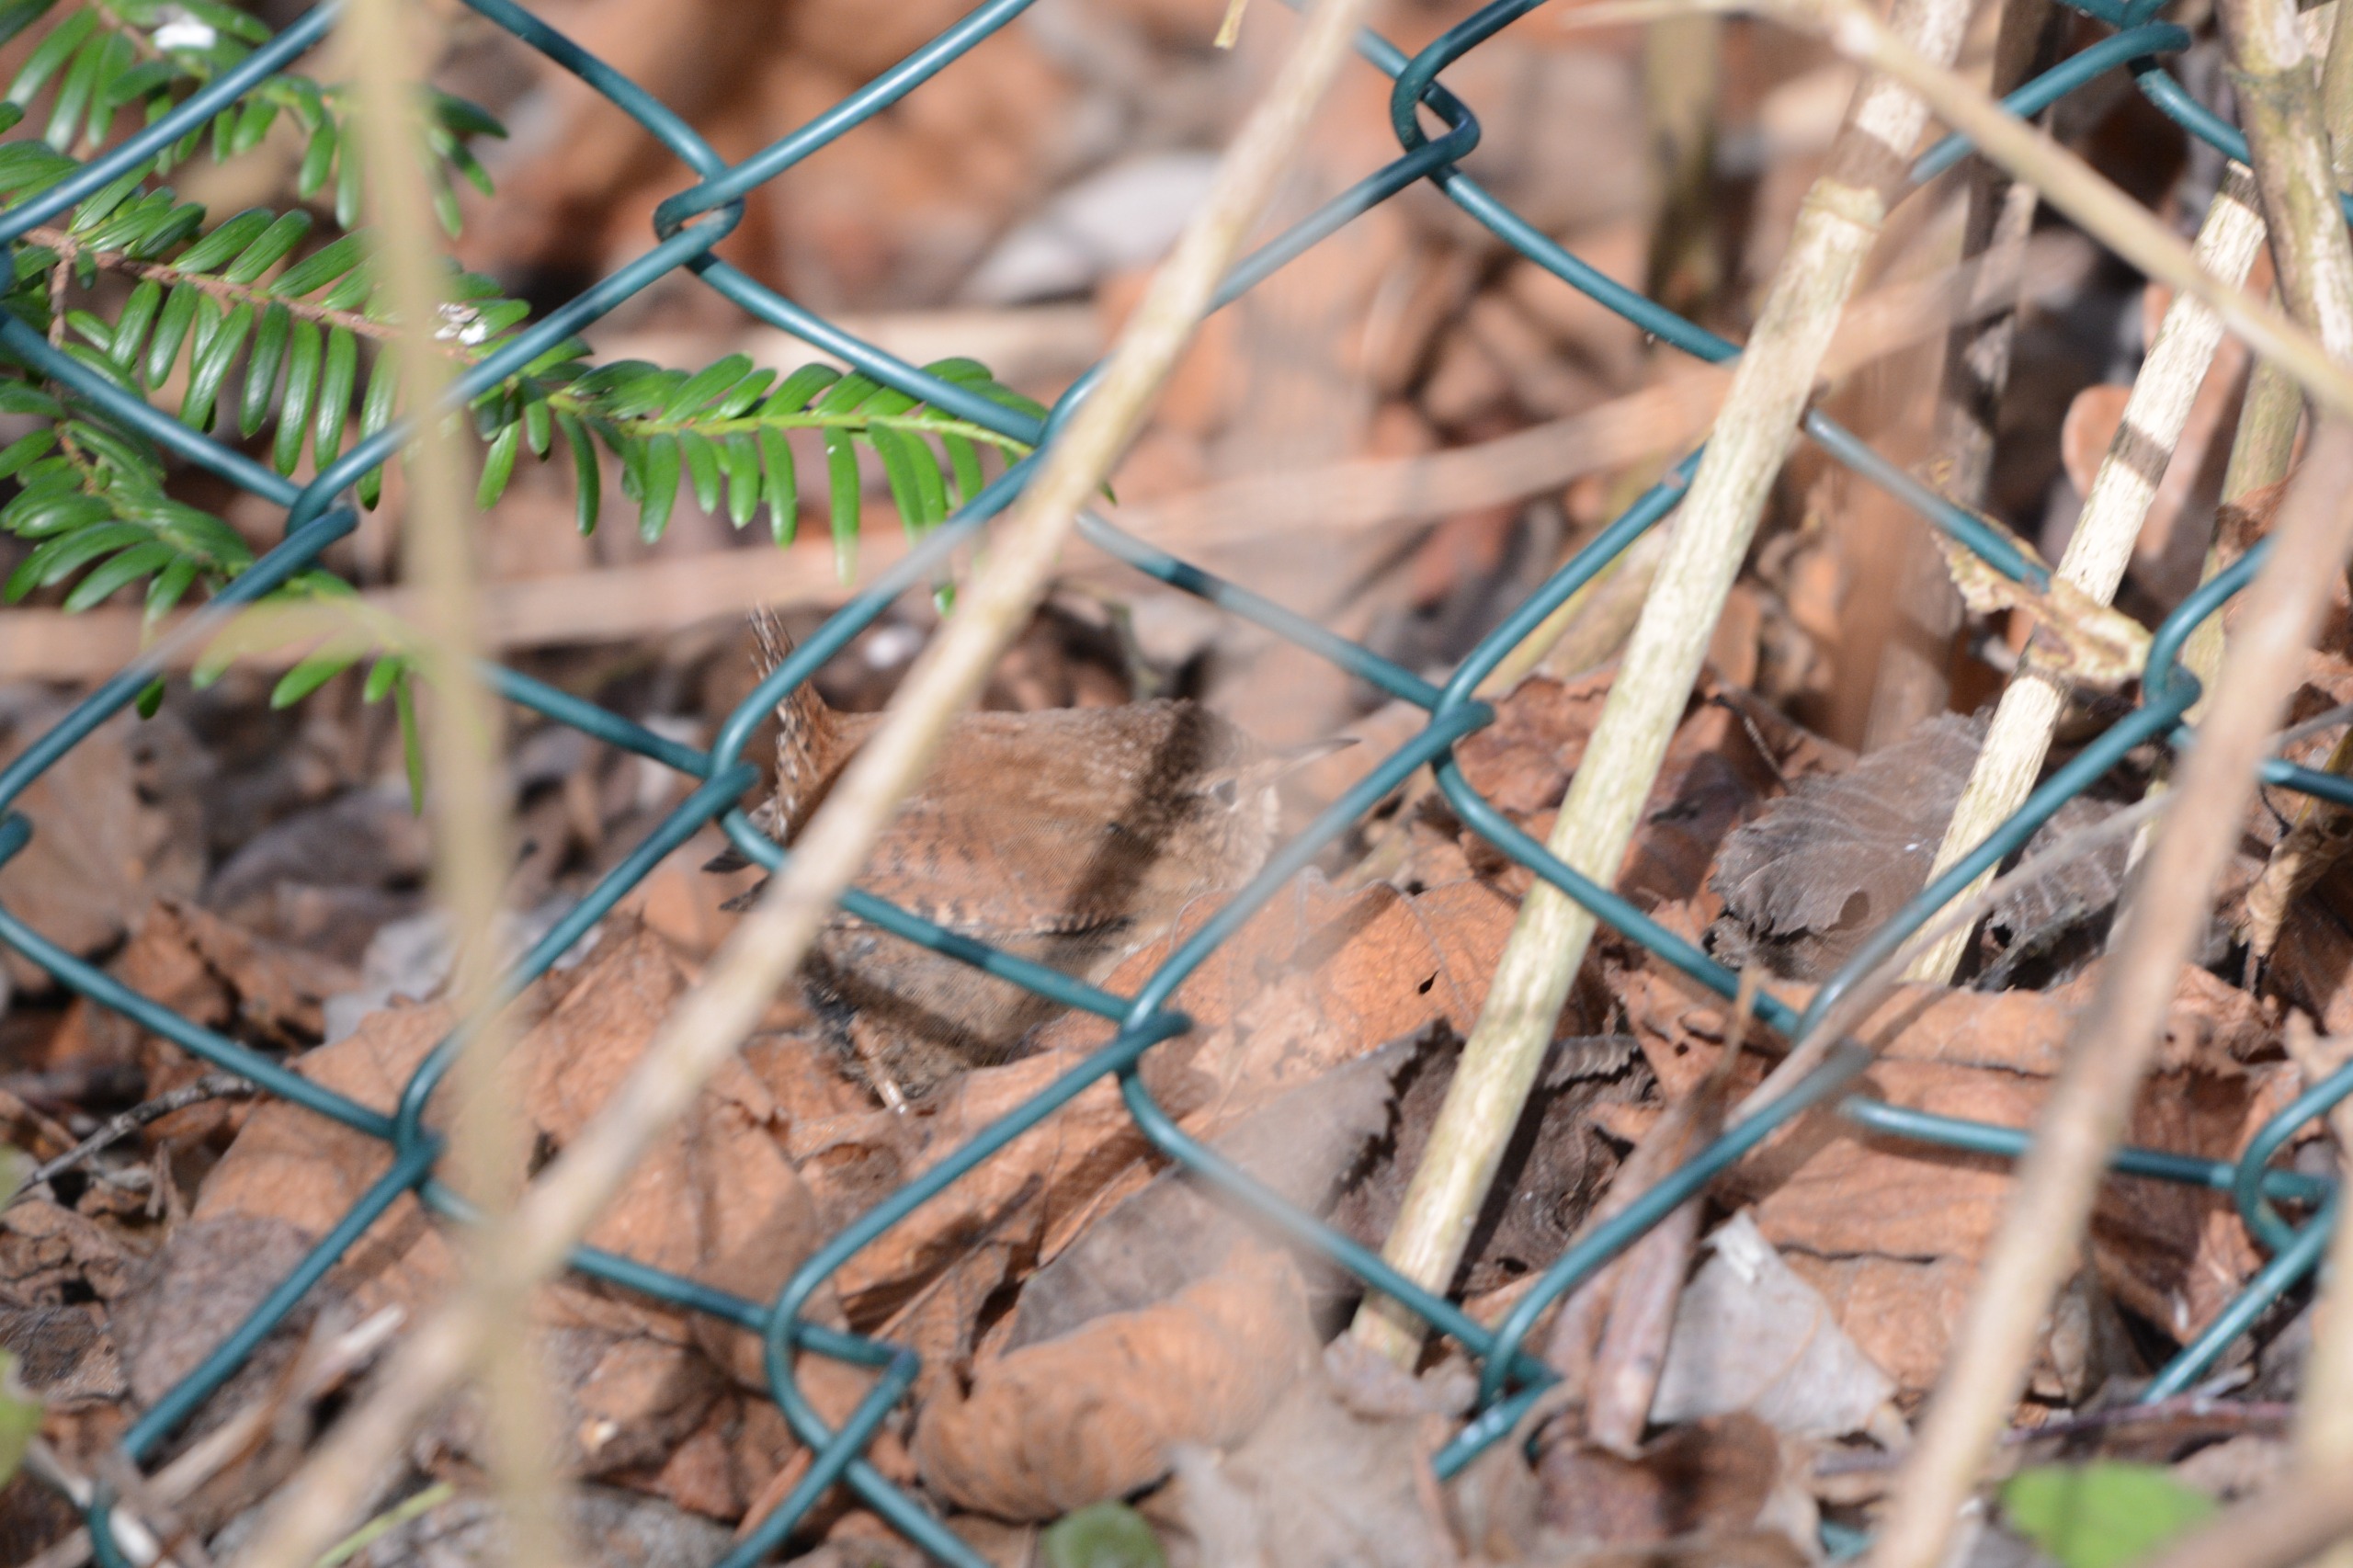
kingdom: Animalia
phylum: Chordata
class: Aves
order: Passeriformes
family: Troglodytidae
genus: Troglodytes
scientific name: Troglodytes troglodytes
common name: Gærdesmutte
